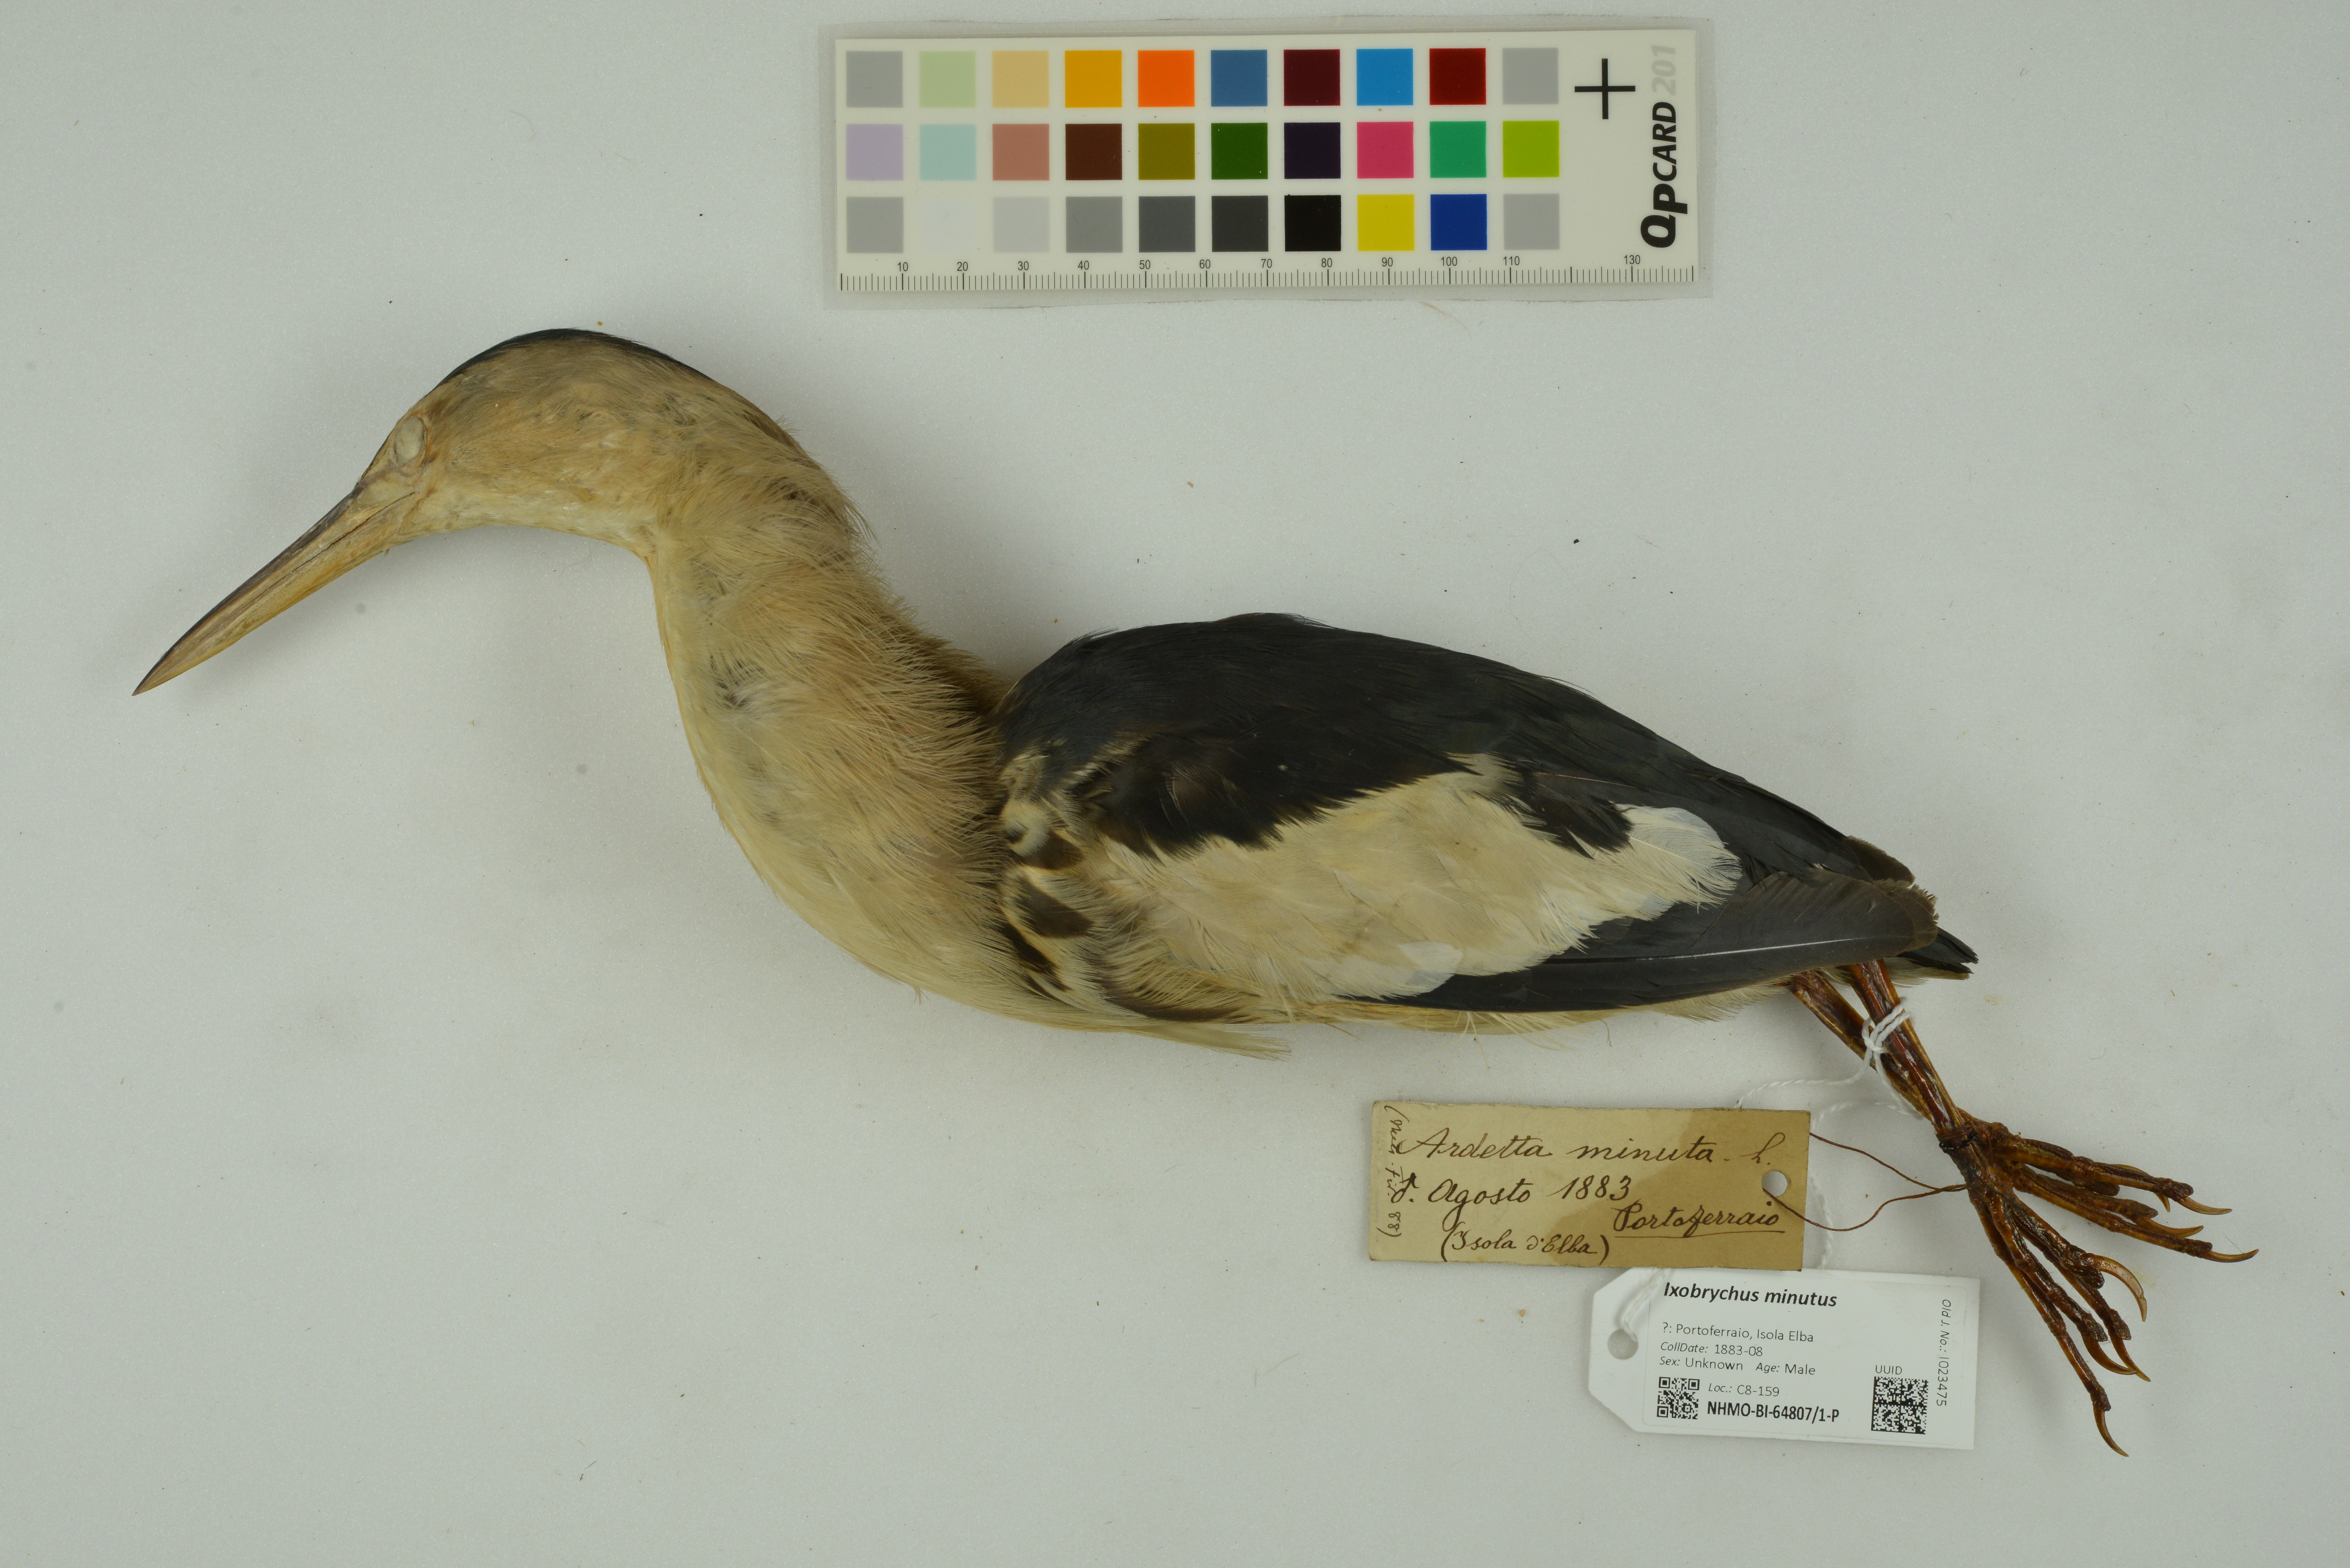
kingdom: Animalia
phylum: Chordata
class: Aves
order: Pelecaniformes
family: Ardeidae
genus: Ixobrychus
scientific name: Ixobrychus minutus
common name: Little bittern
